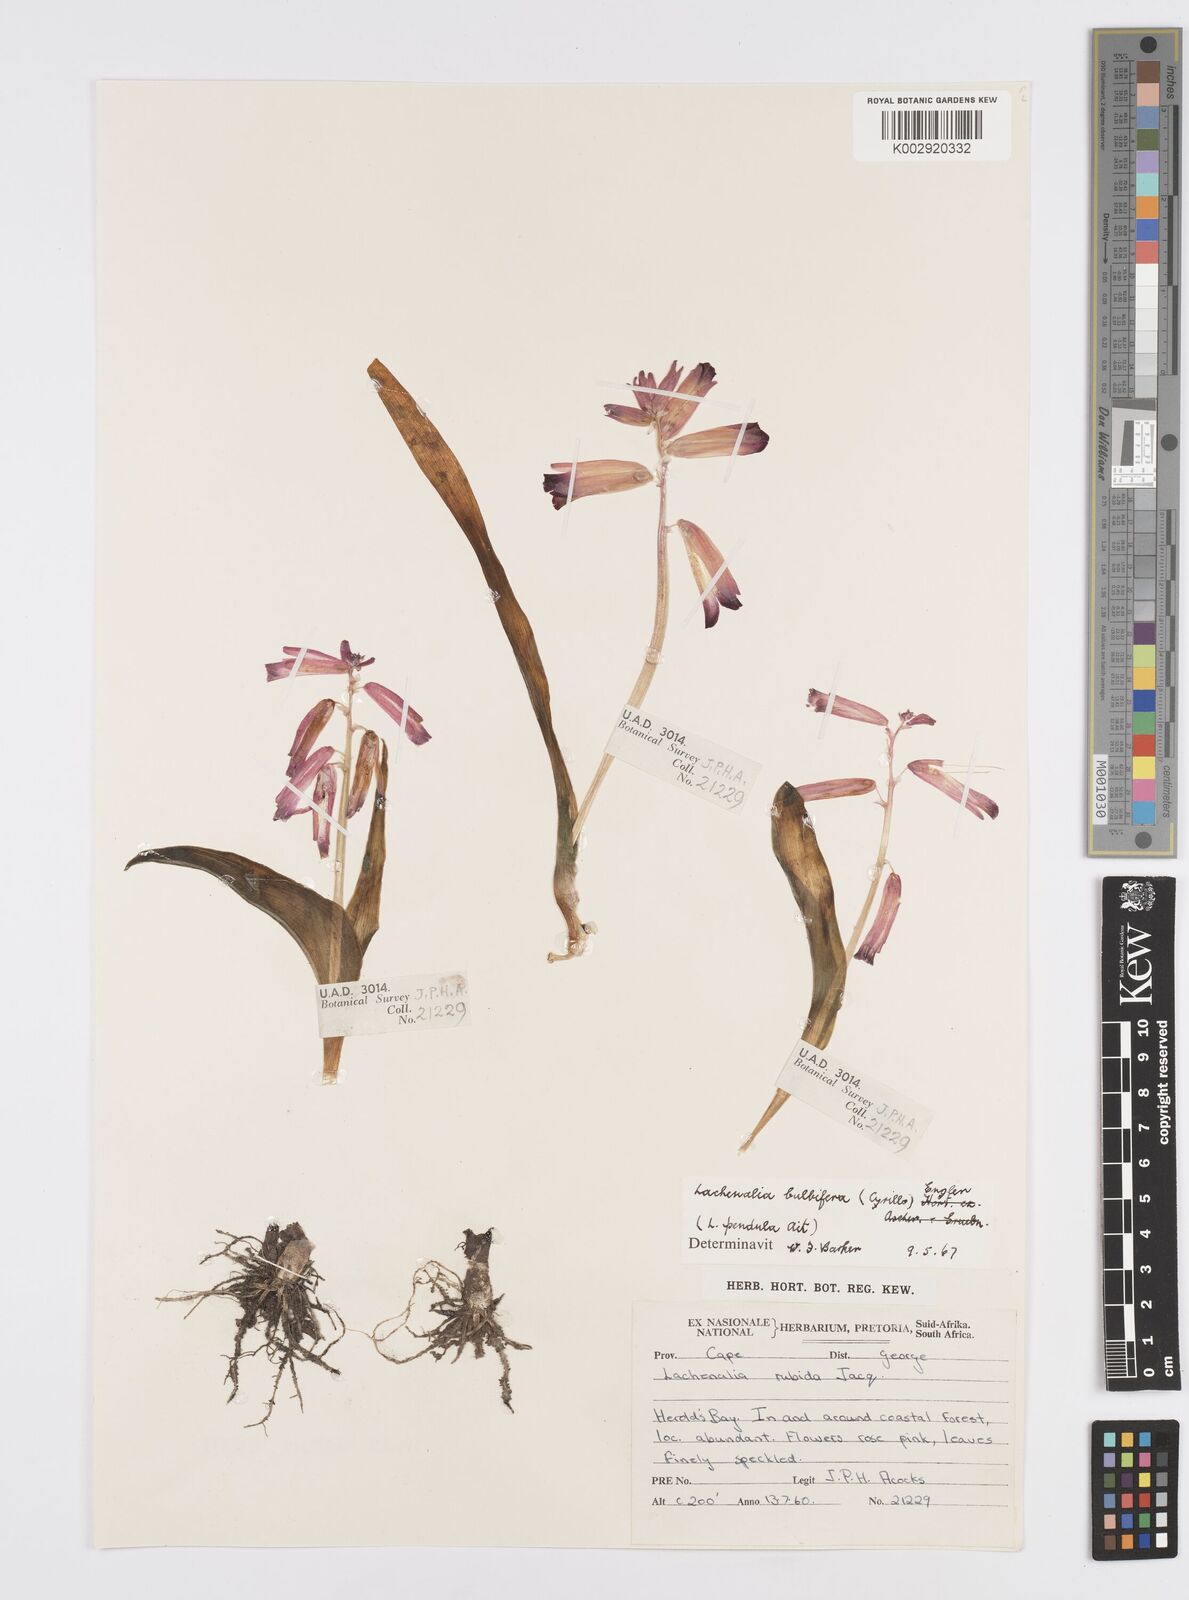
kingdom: Plantae
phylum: Tracheophyta
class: Liliopsida
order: Asparagales
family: Asparagaceae
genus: Lachenalia
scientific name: Lachenalia bulbifera
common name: Red lachenalia
